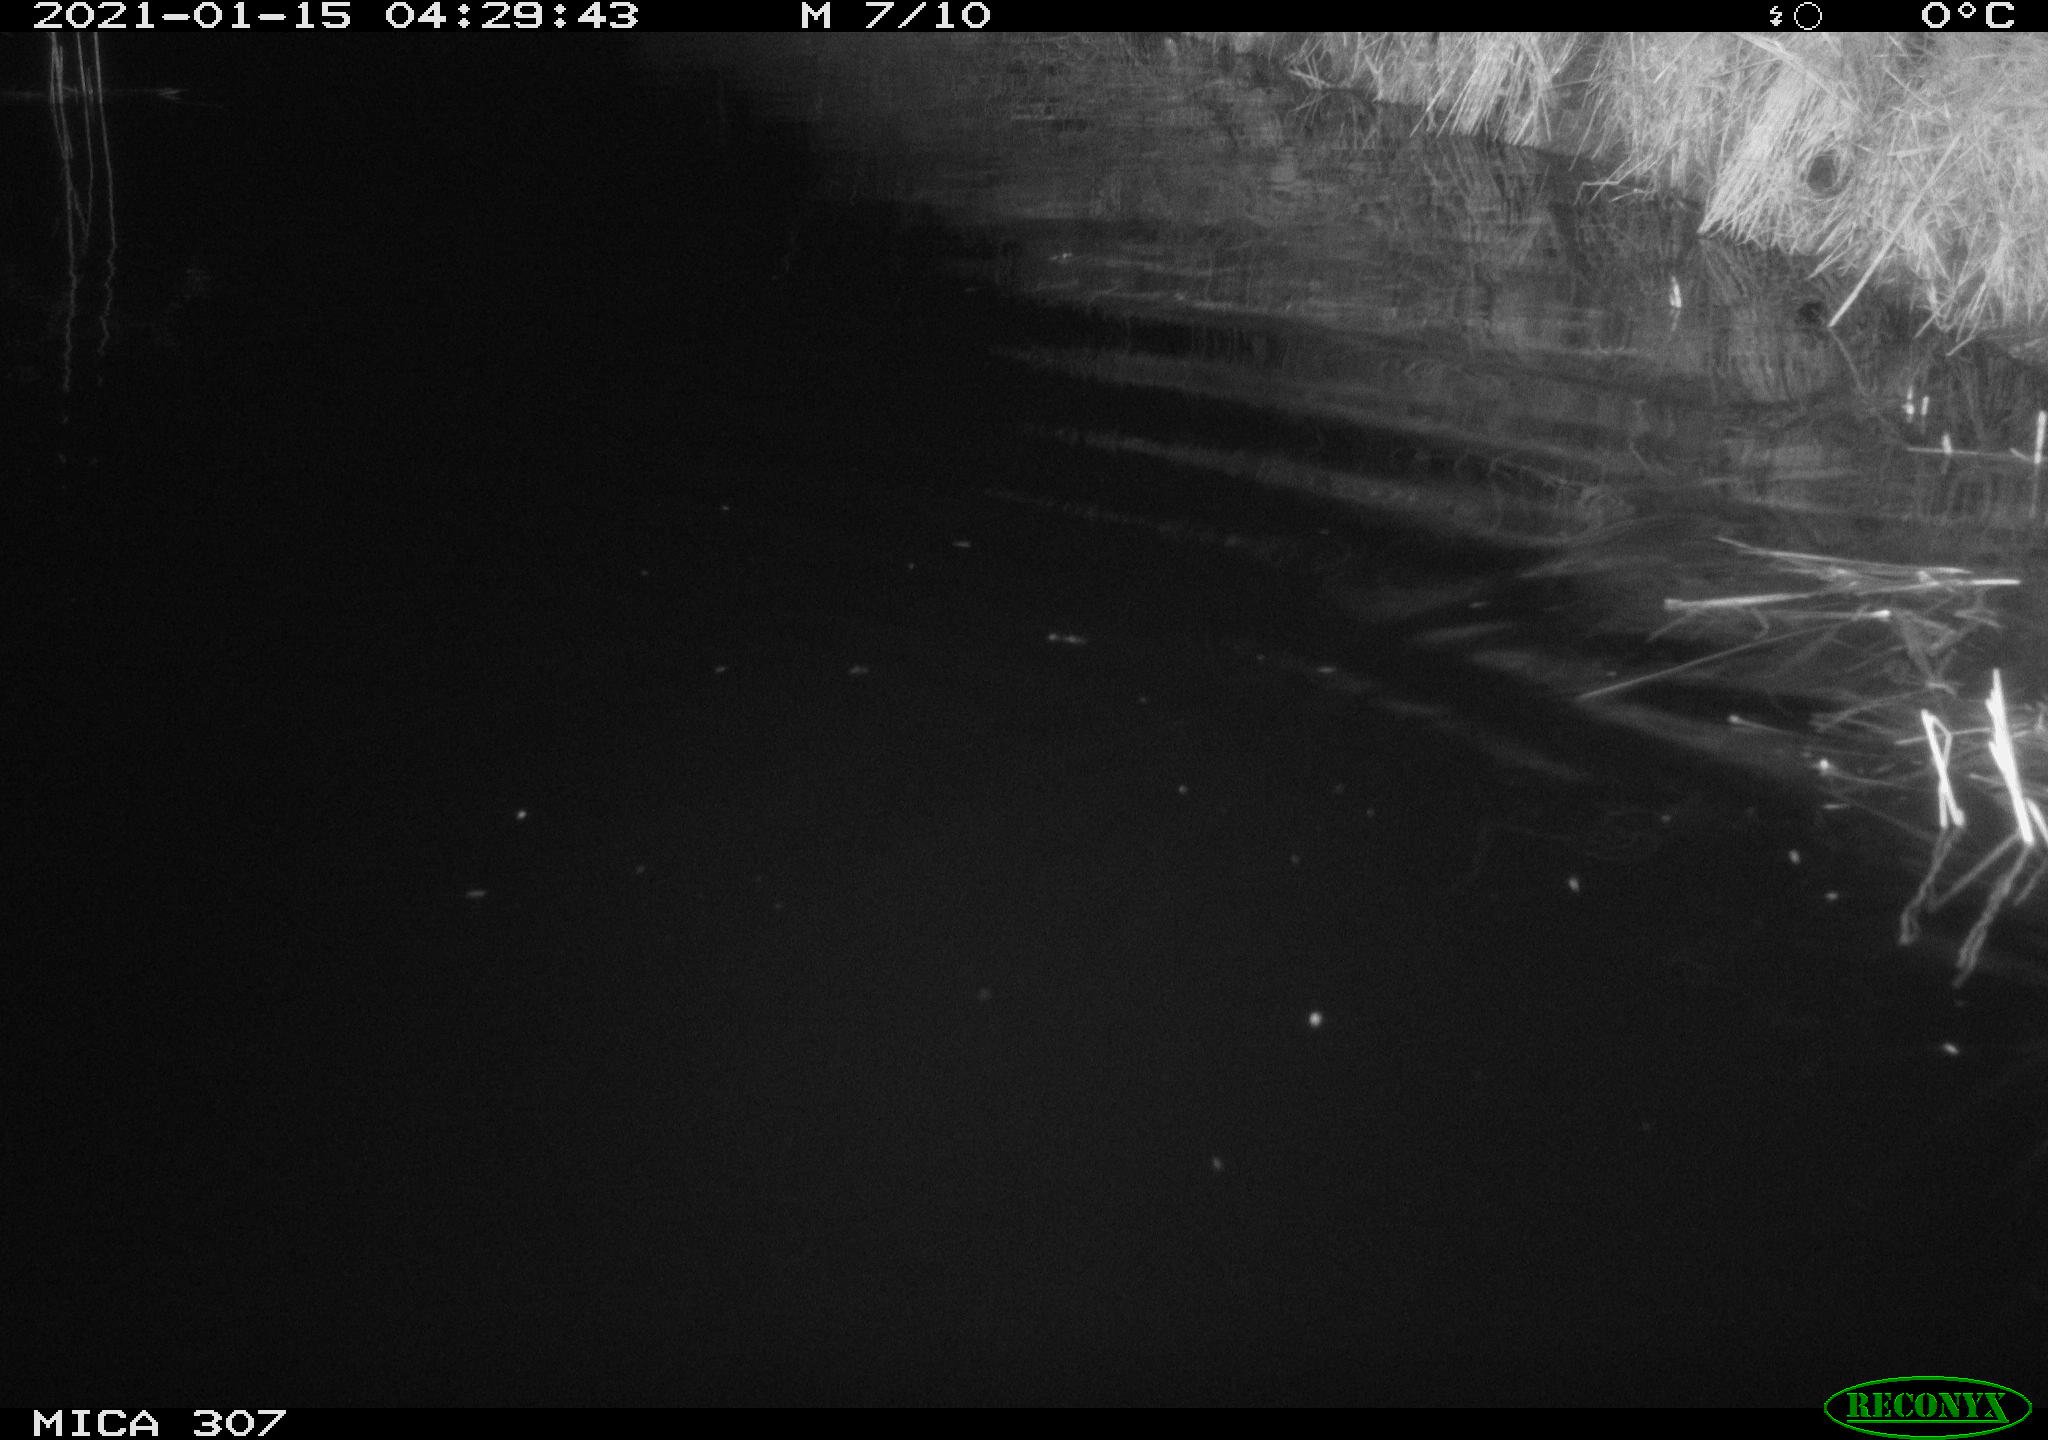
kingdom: Animalia
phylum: Chordata
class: Mammalia
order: Rodentia
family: Muridae
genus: Rattus
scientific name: Rattus norvegicus
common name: Brown rat
